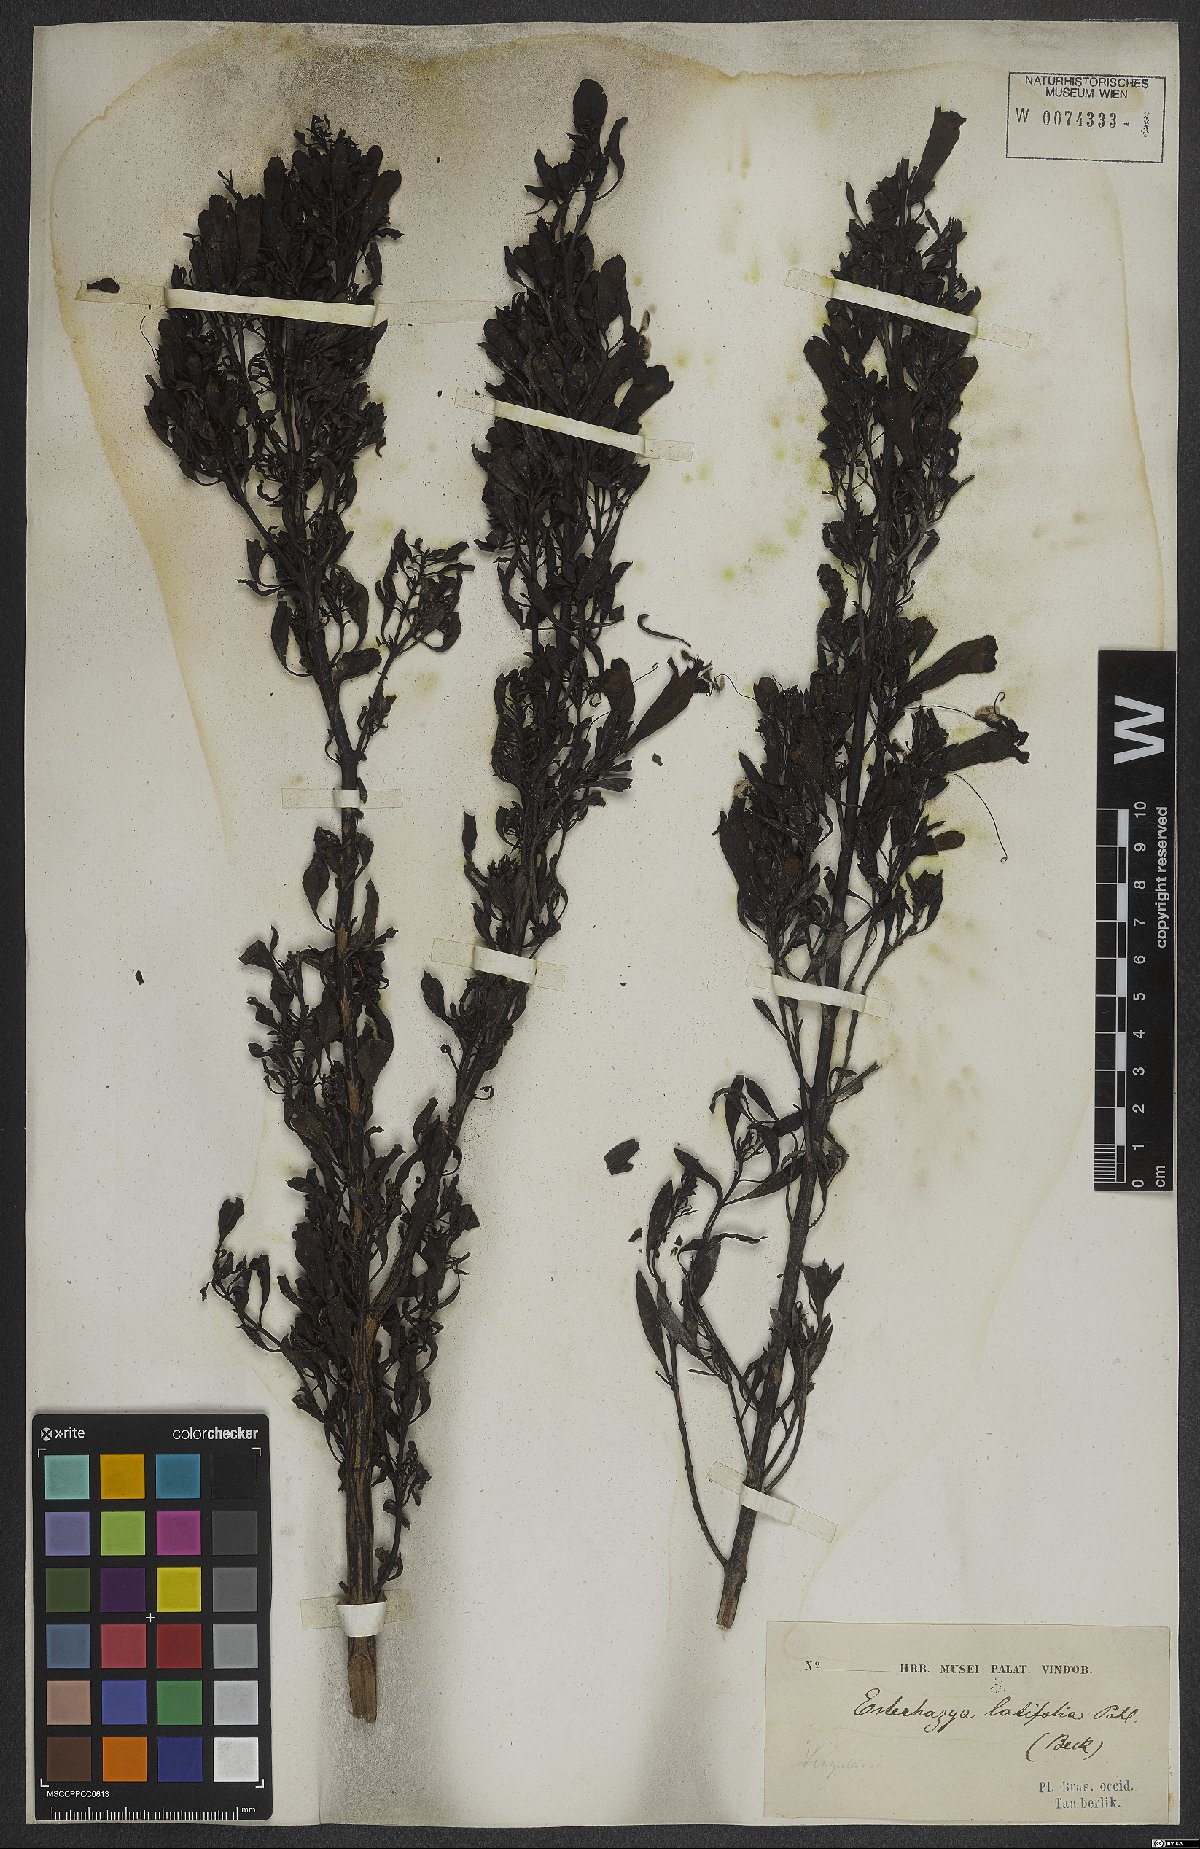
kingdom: Plantae
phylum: Tracheophyta
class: Magnoliopsida
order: Lamiales
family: Scrophulariaceae
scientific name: Scrophulariaceae
